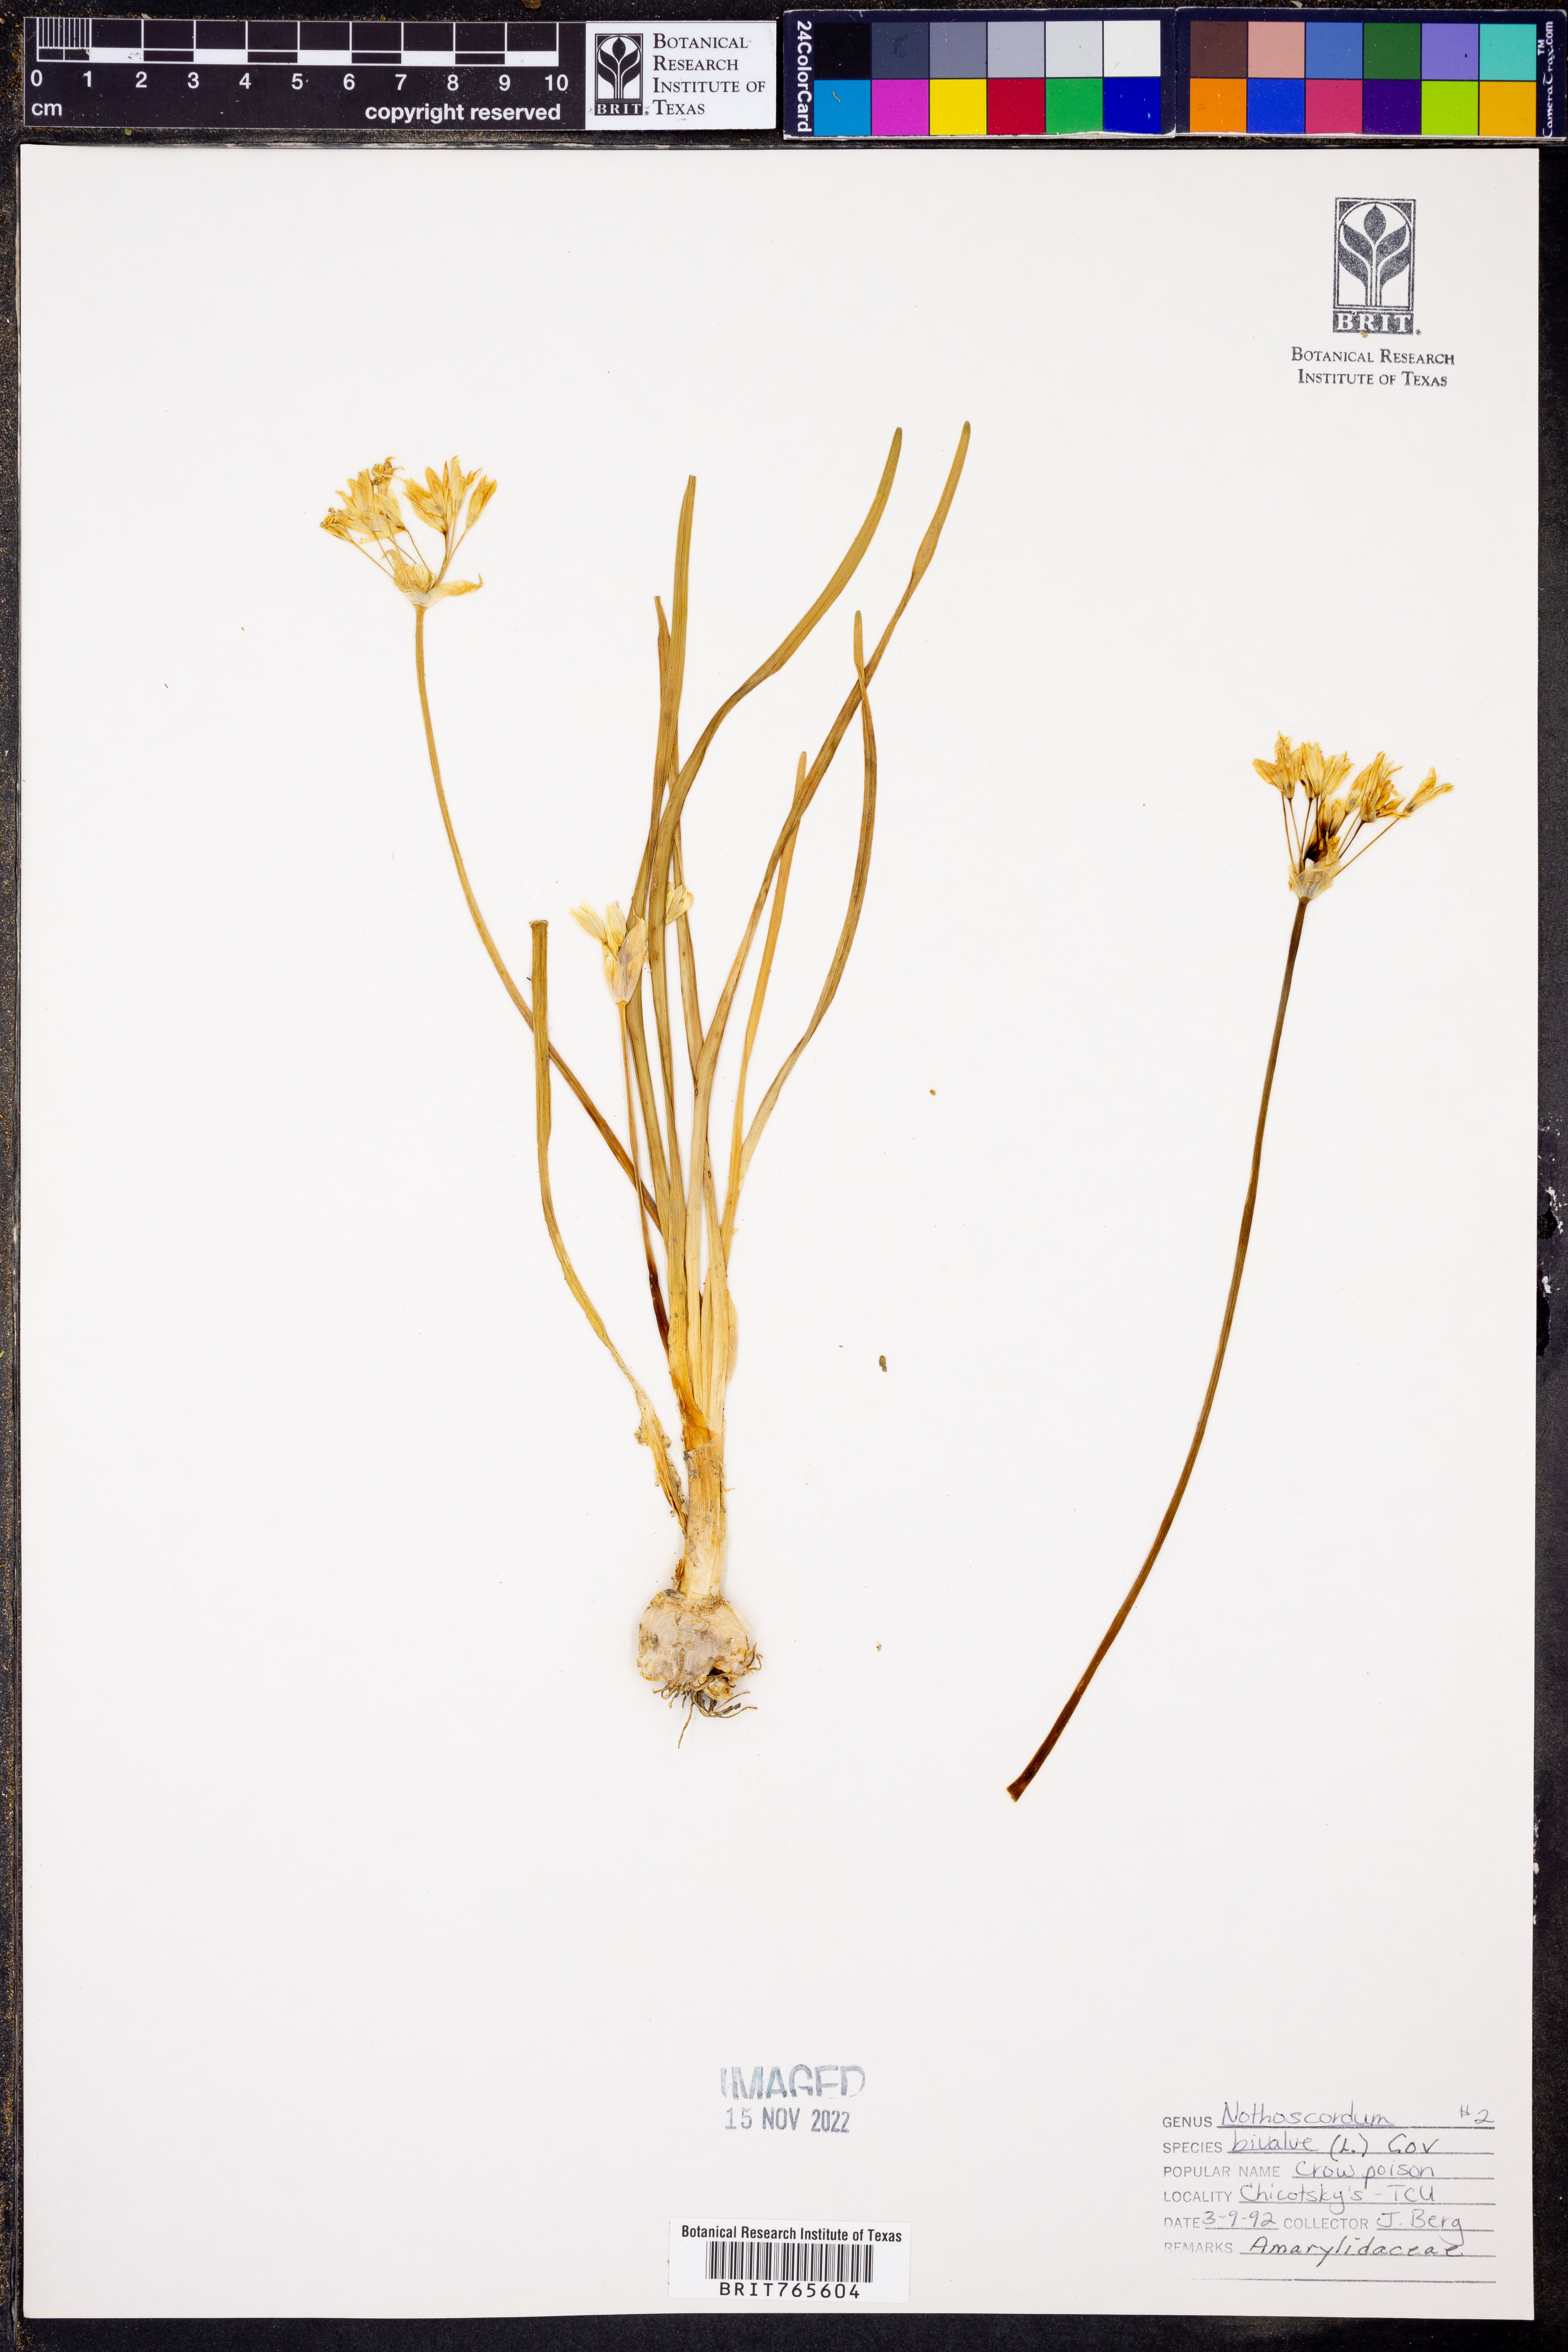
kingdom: Plantae
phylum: Tracheophyta
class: Liliopsida
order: Asparagales
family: Amaryllidaceae
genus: Nothoscordum
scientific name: Nothoscordum bivalve
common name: Crow-poison
